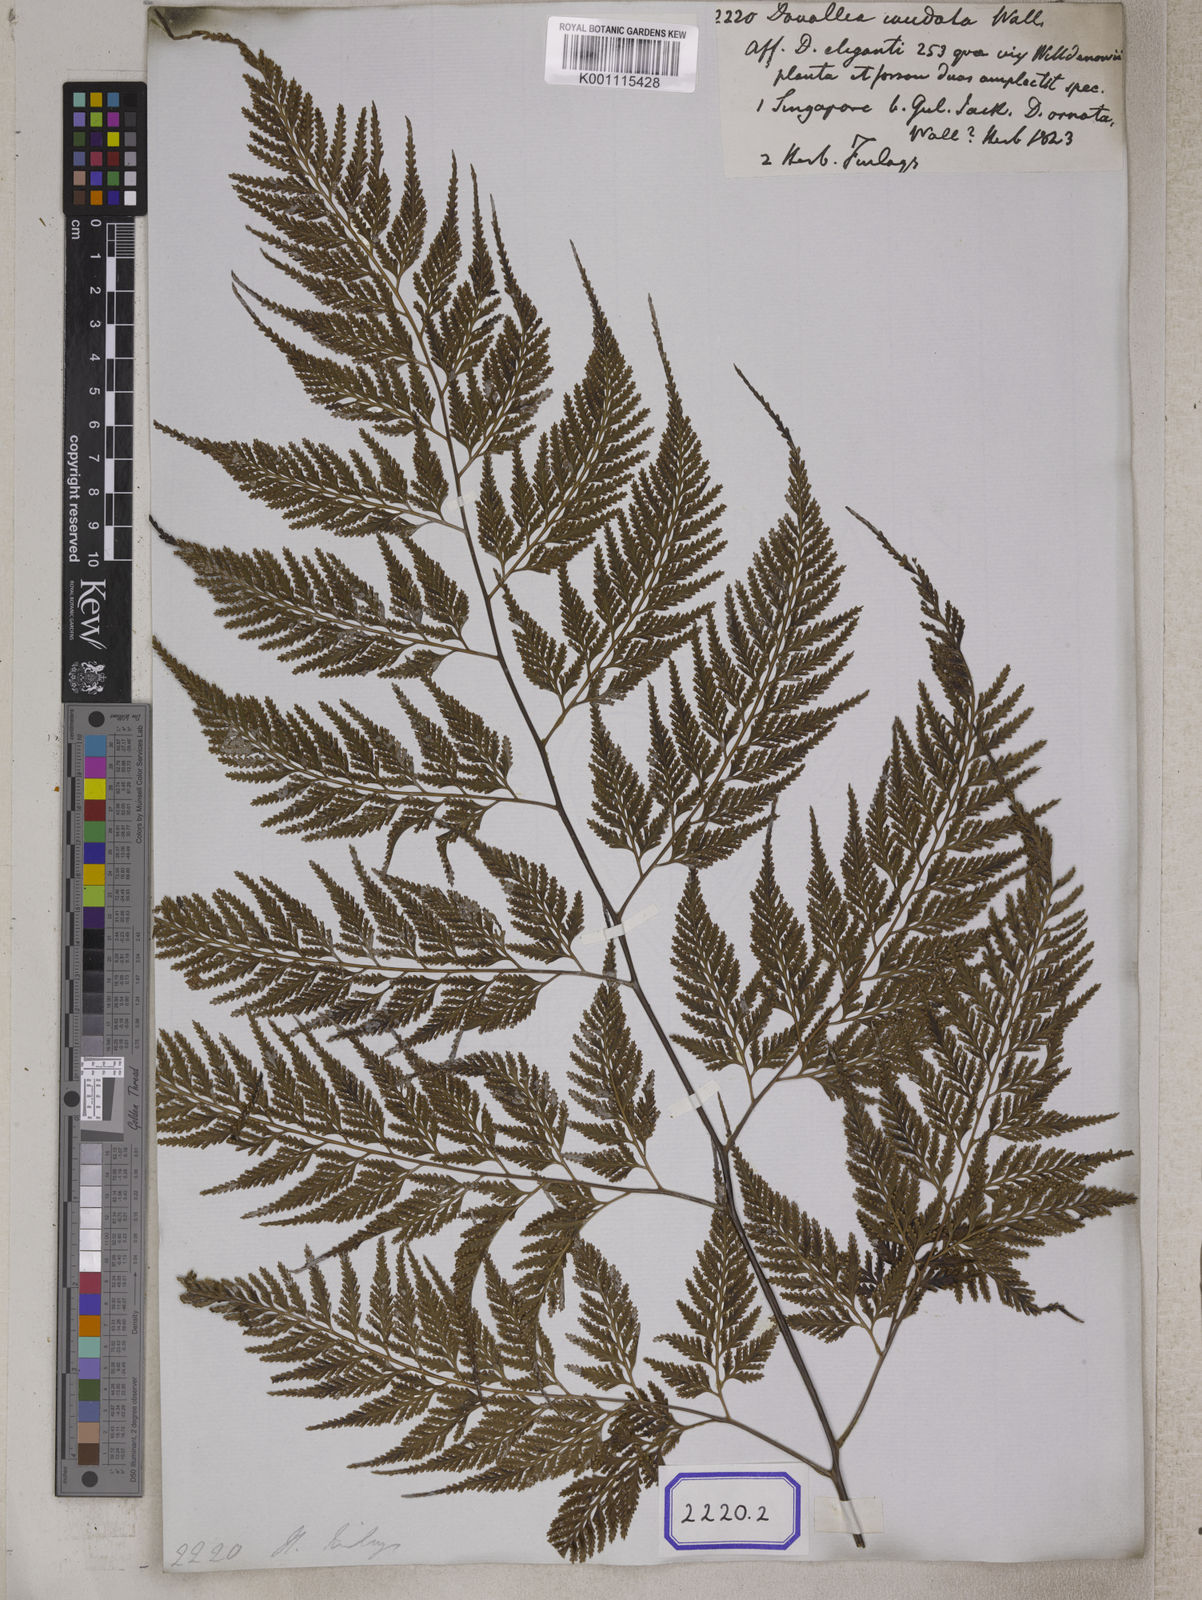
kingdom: Plantae
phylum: Tracheophyta
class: Polypodiopsida
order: Polypodiales
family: Davalliaceae
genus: Davallia
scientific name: Davallia denticulata
